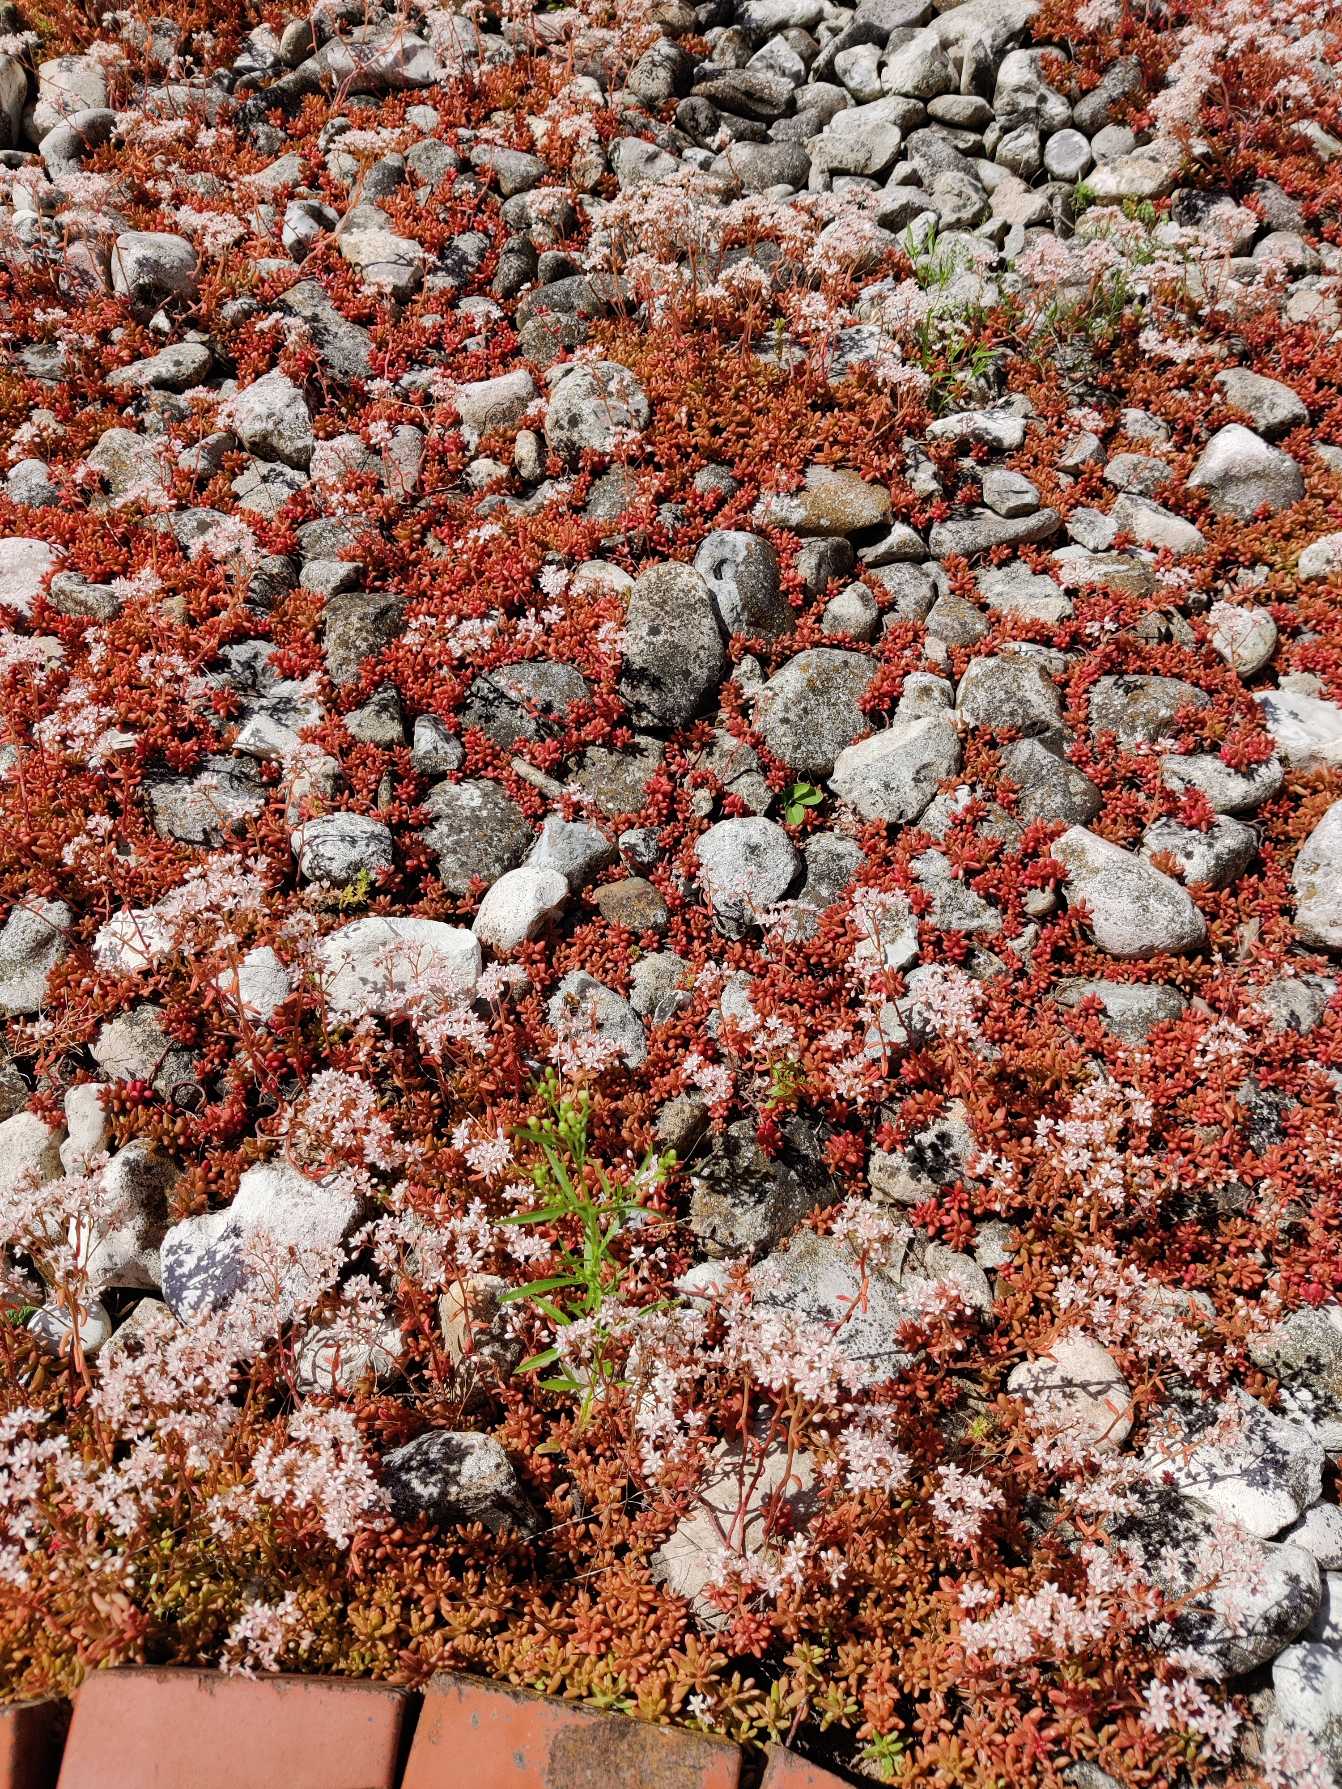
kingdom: Plantae
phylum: Tracheophyta
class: Magnoliopsida
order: Saxifragales
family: Crassulaceae
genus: Sedum
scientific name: Sedum album
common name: Hvid stenurt
